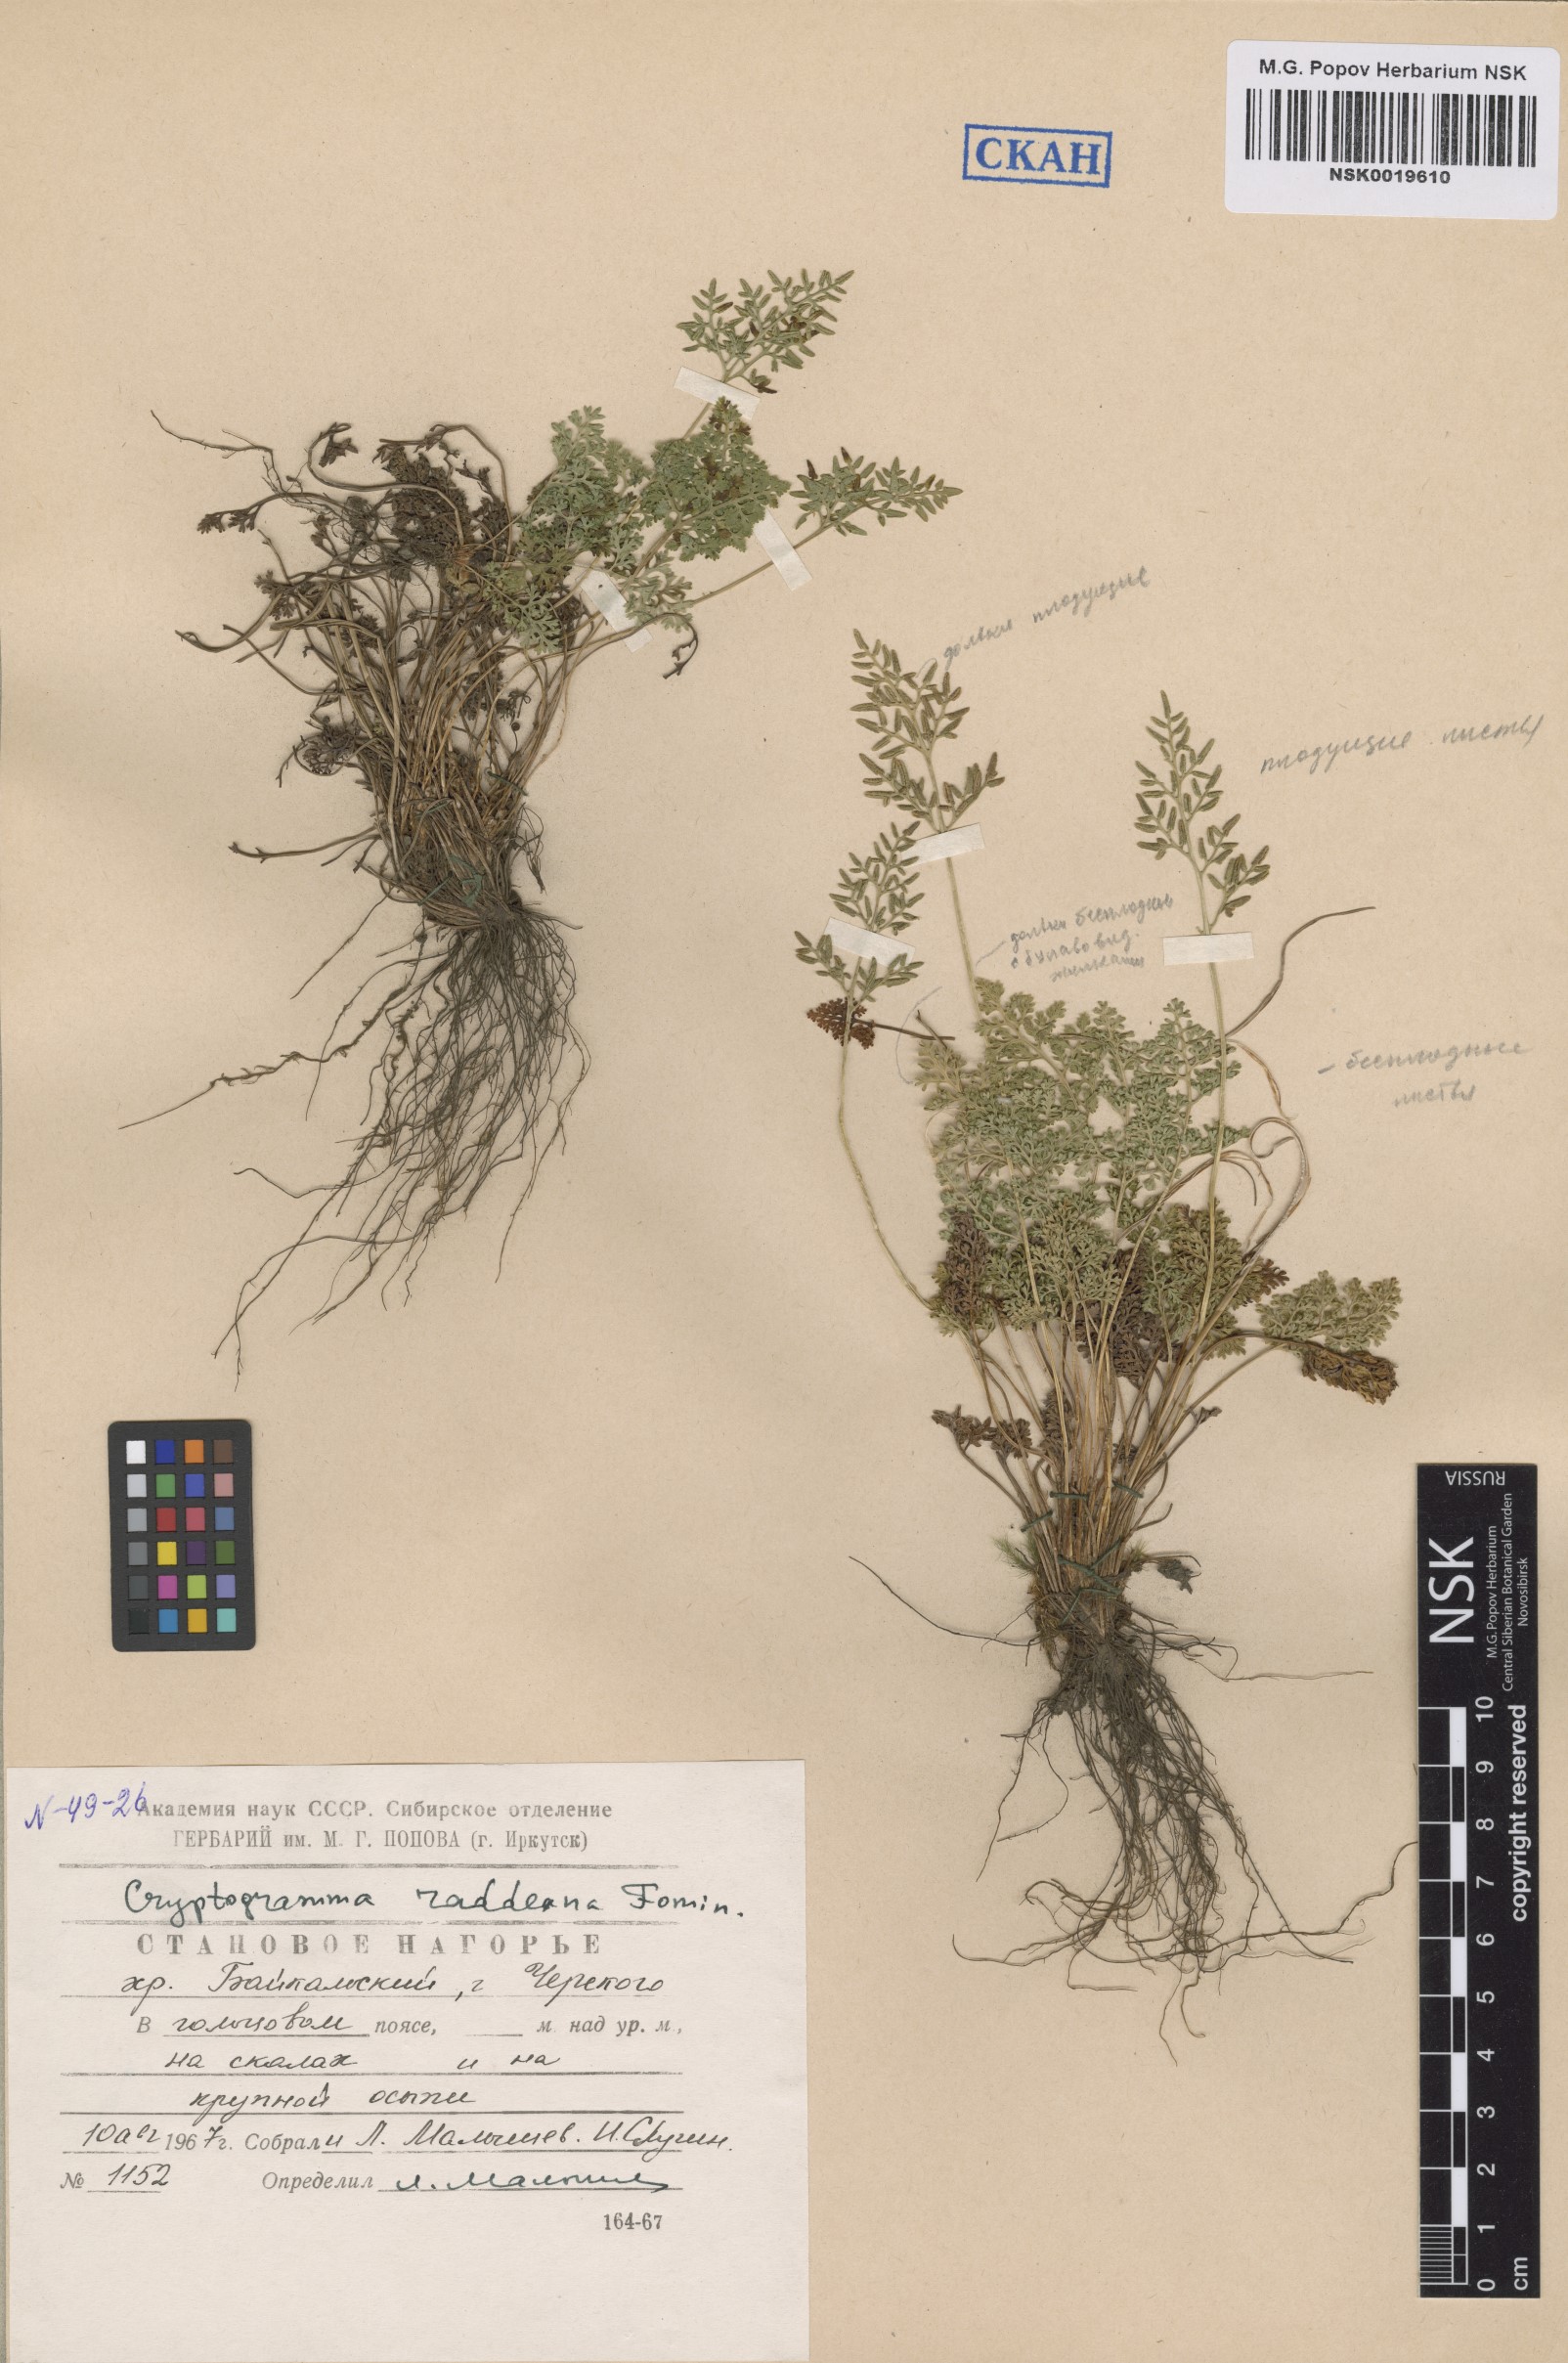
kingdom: Plantae
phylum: Tracheophyta
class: Polypodiopsida
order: Polypodiales
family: Pteridaceae
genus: Cryptogramma
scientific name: Cryptogramma brunoniana
